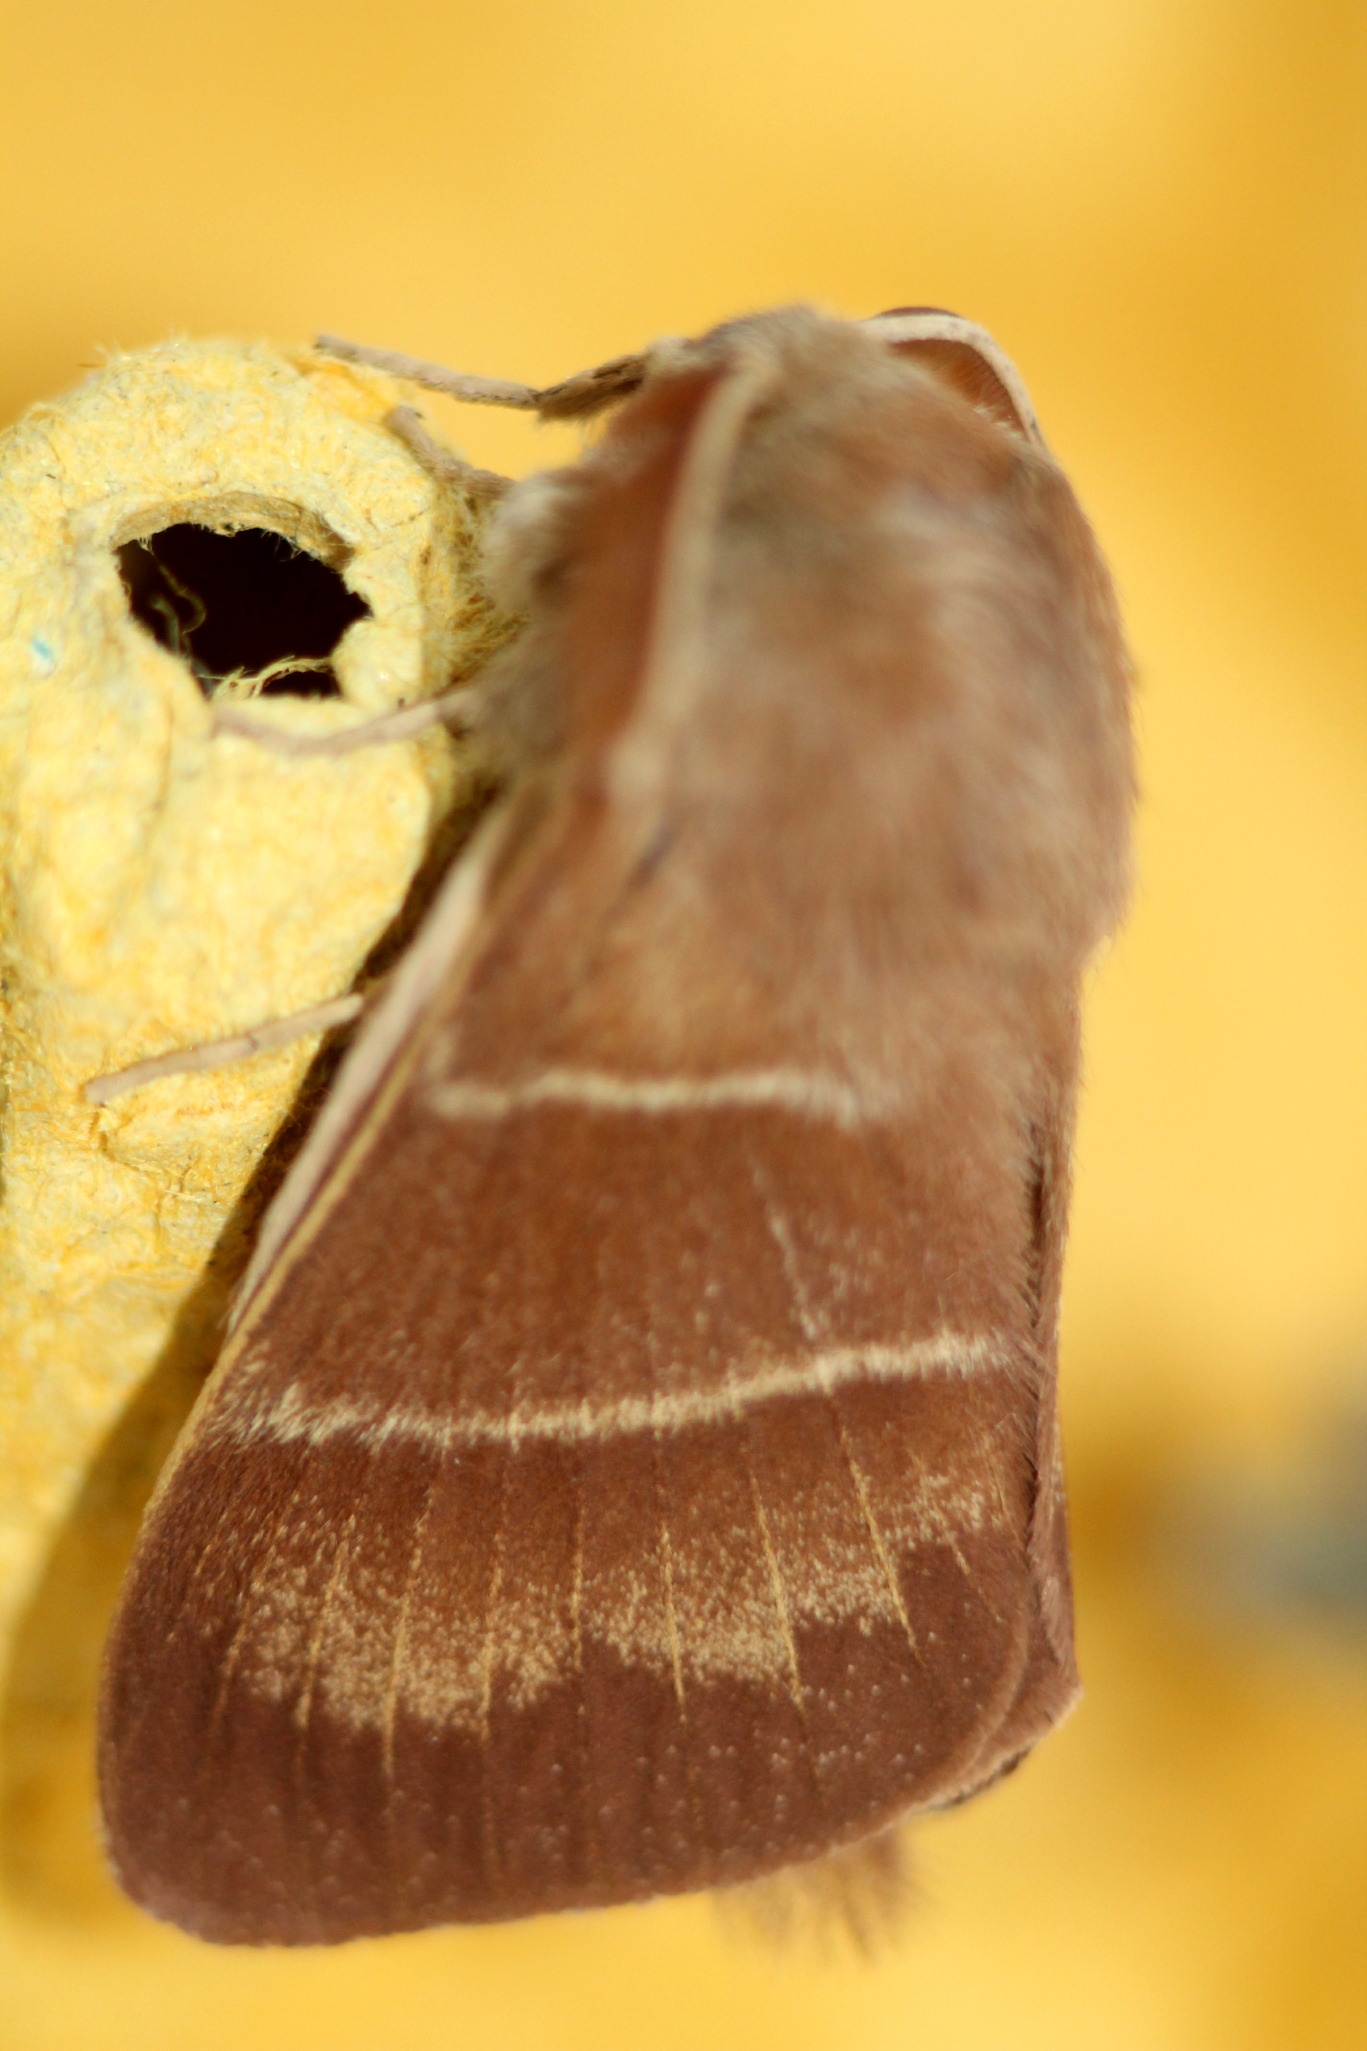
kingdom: Animalia
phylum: Arthropoda
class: Insecta
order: Lepidoptera
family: Lasiocampidae
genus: Macrothylacia
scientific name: Macrothylacia rubi
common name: Fox moth
